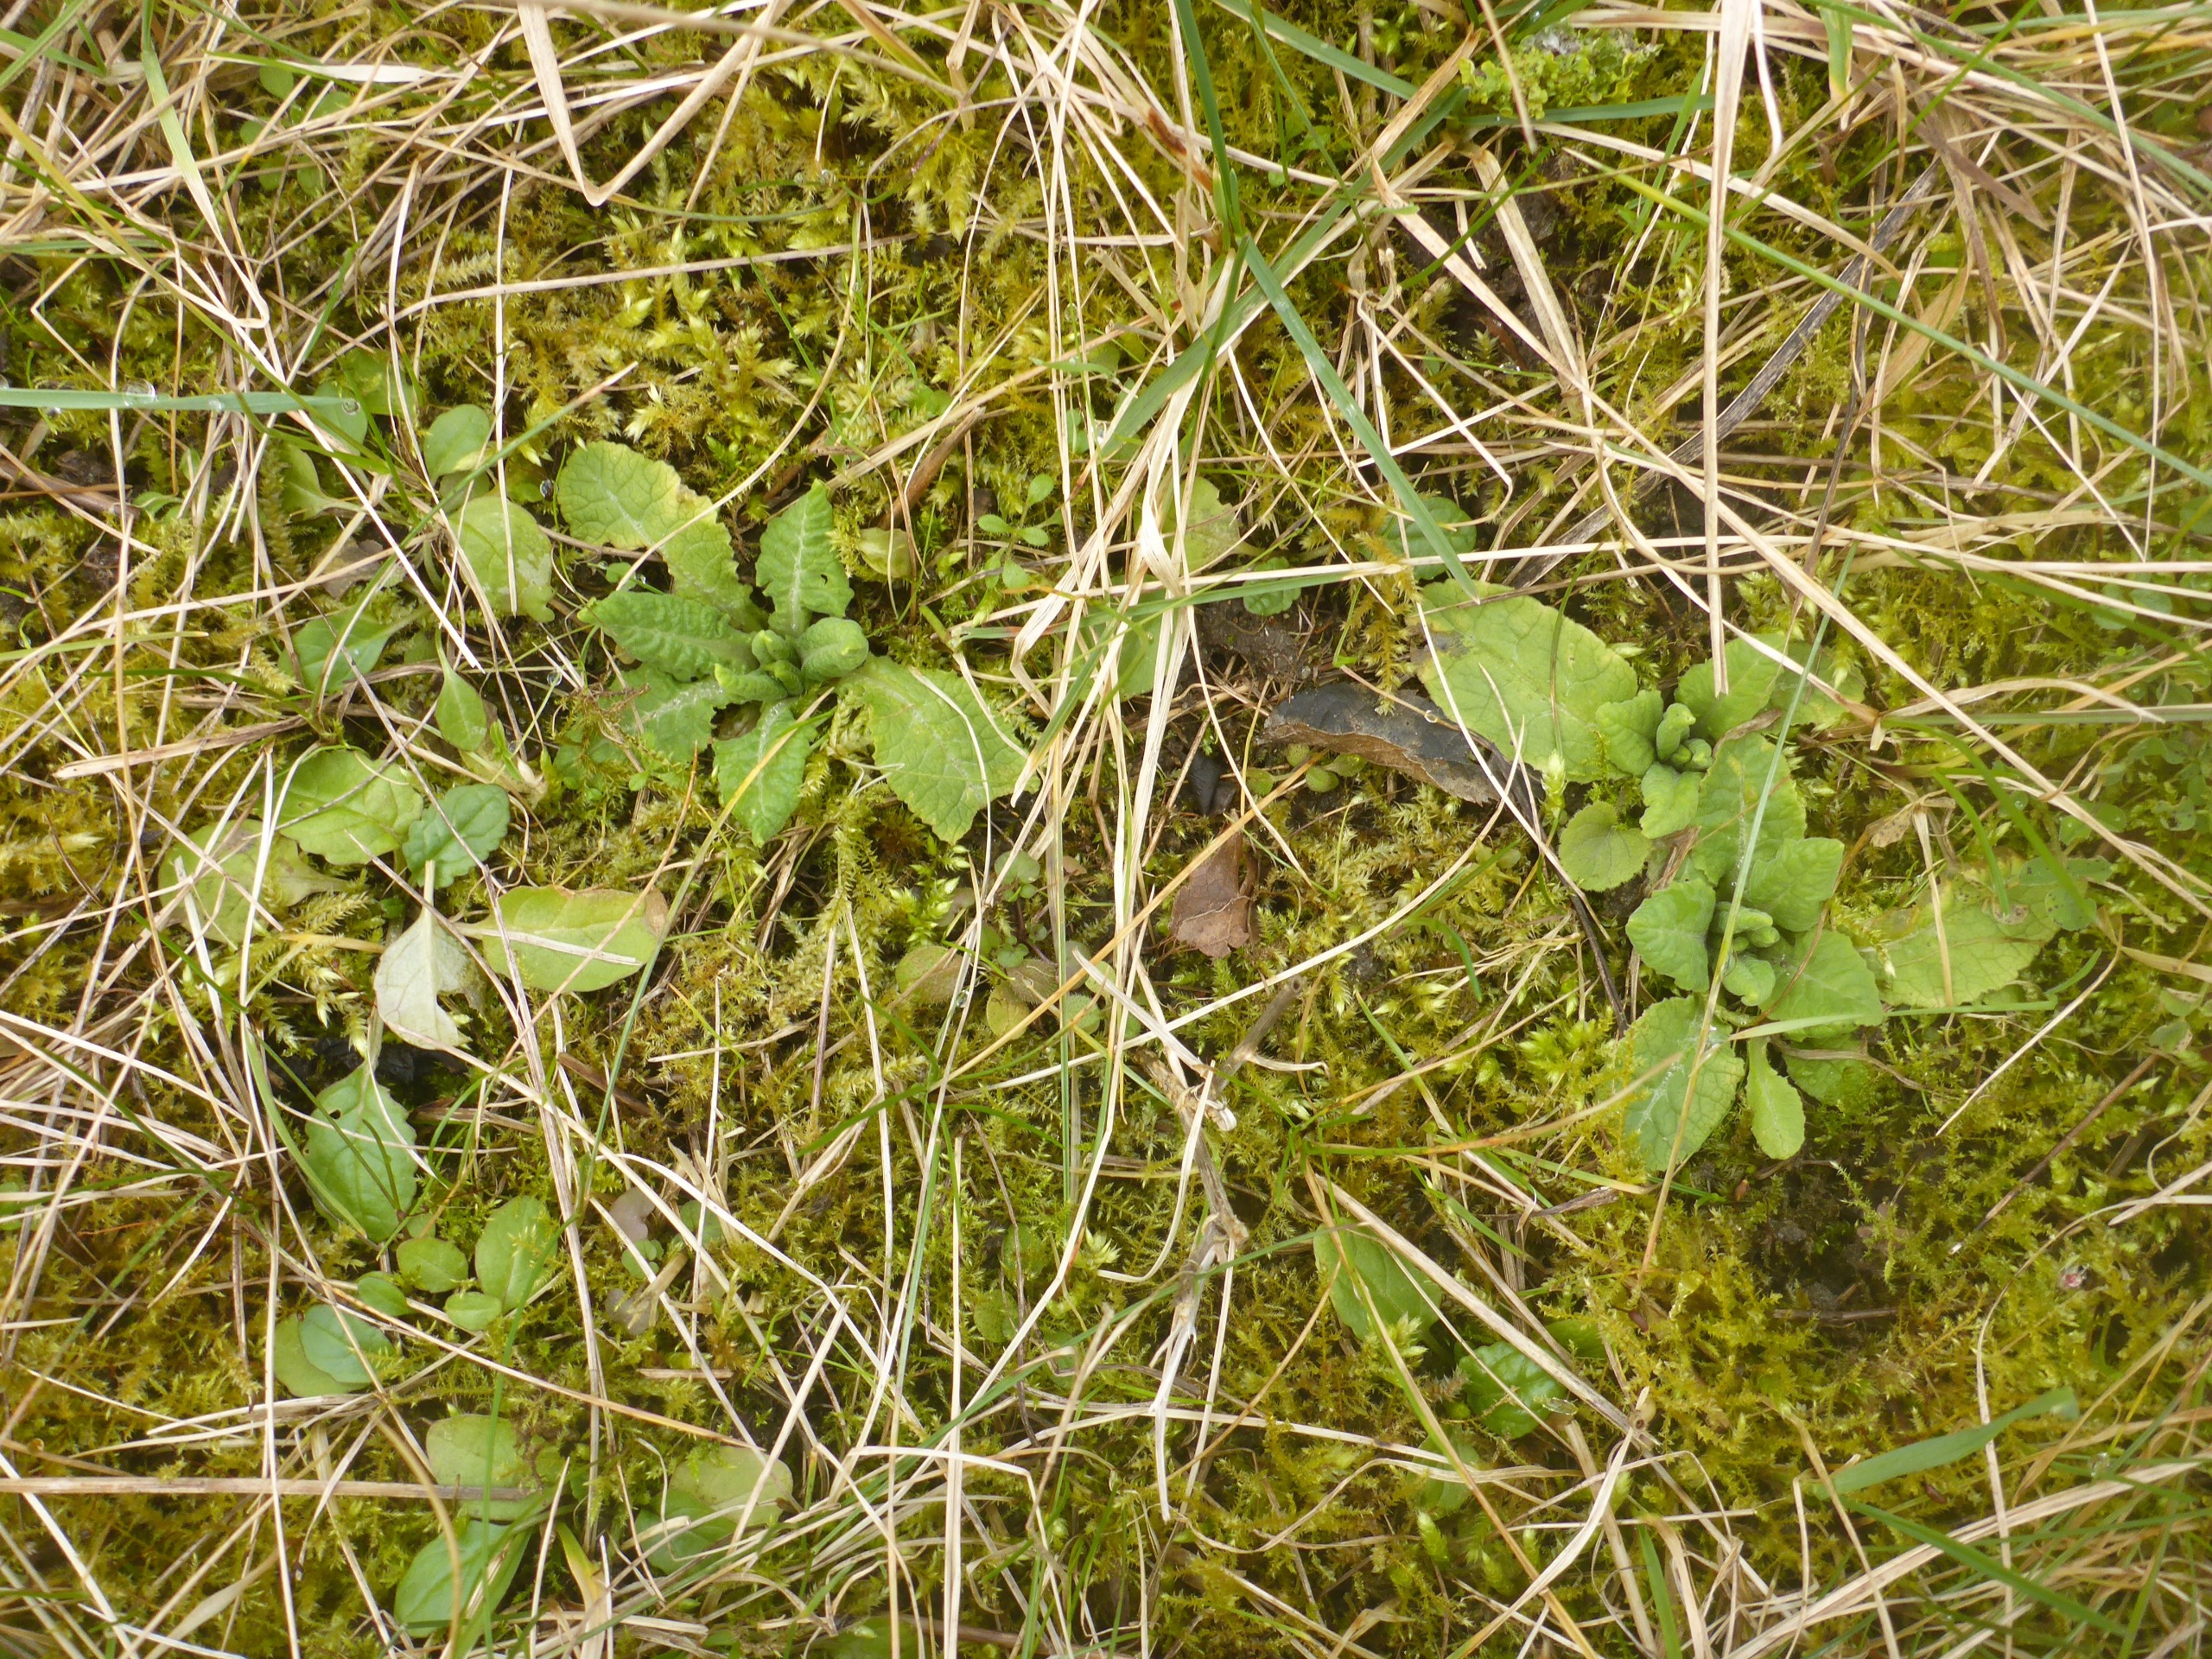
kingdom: Plantae
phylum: Tracheophyta
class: Magnoliopsida
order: Ericales
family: Primulaceae
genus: Primula
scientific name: Primula veris
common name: Hulkravet kodriver
